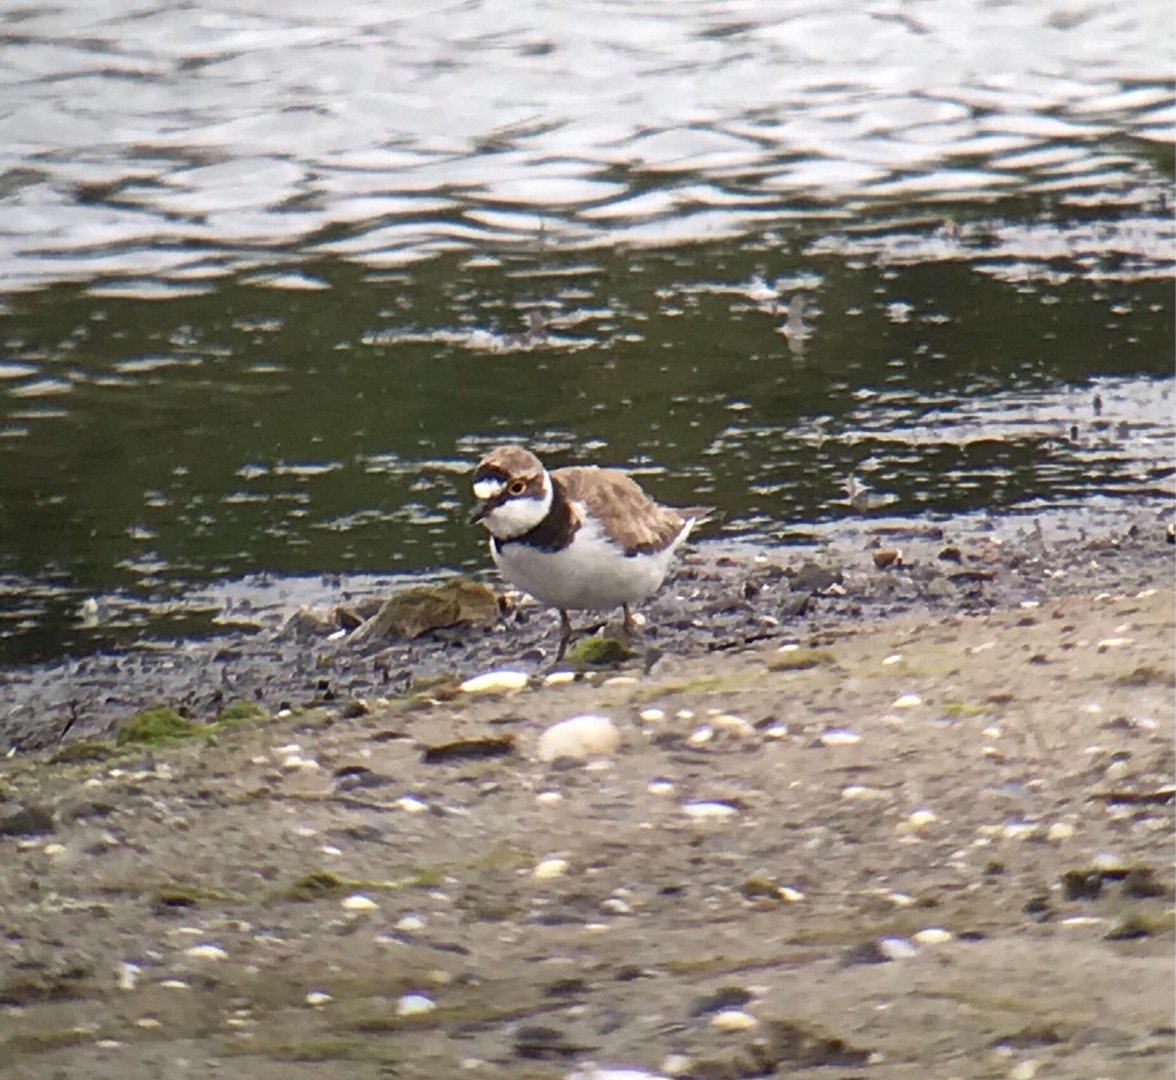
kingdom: Animalia
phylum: Chordata
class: Aves
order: Charadriiformes
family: Charadriidae
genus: Charadrius
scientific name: Charadrius dubius
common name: Lille præstekrave
